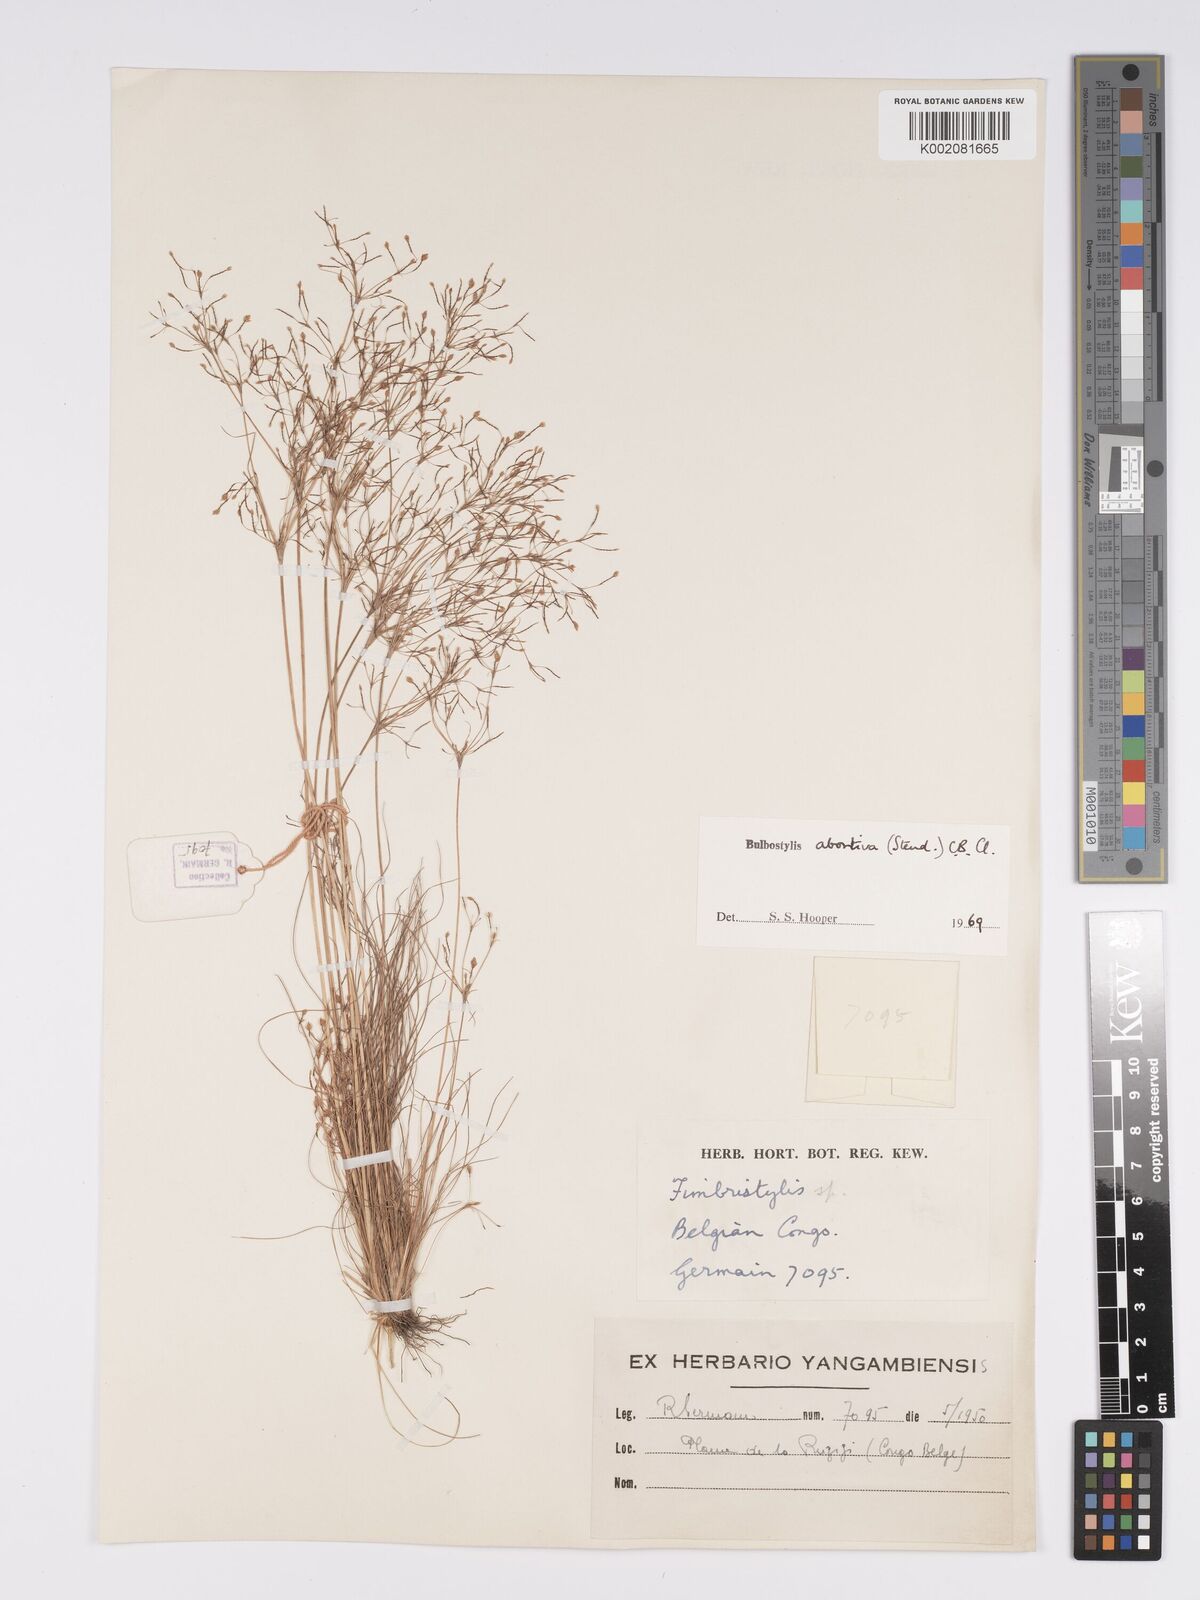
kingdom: Plantae
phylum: Tracheophyta
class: Liliopsida
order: Poales
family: Cyperaceae
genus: Bulbostylis
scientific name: Bulbostylis abortiva
